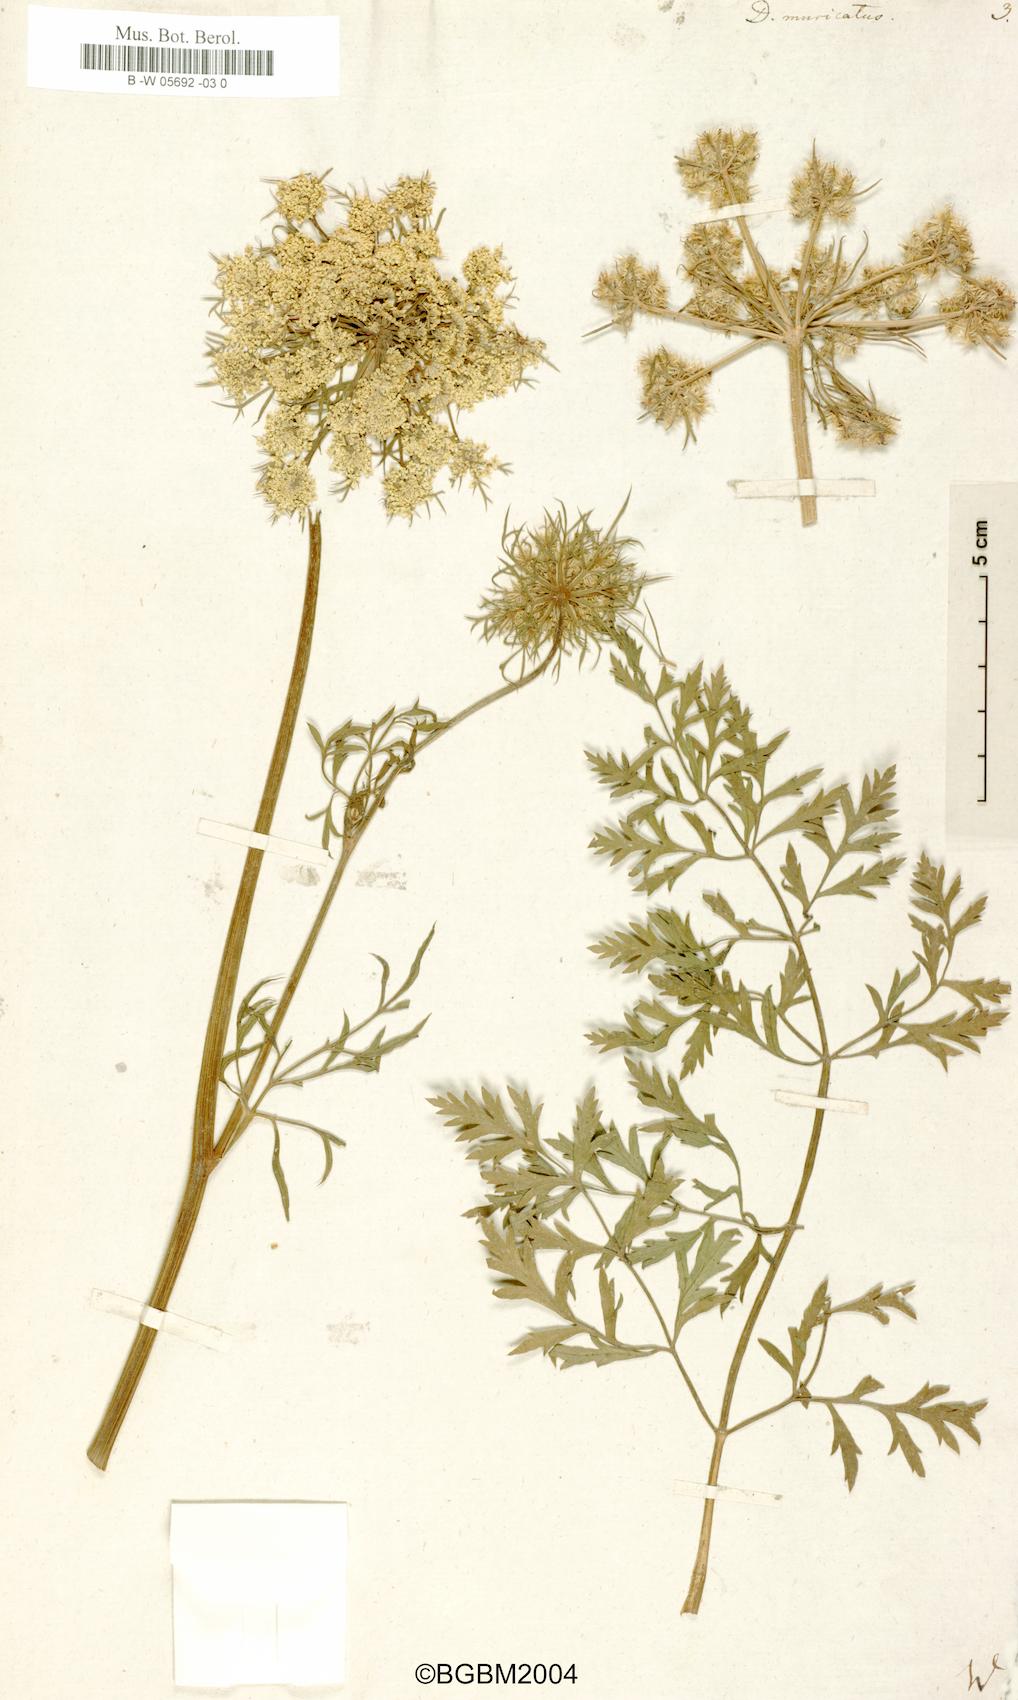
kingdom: Plantae
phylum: Tracheophyta
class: Magnoliopsida
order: Apiales
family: Apiaceae
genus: Daucus
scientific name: Daucus muricatus
